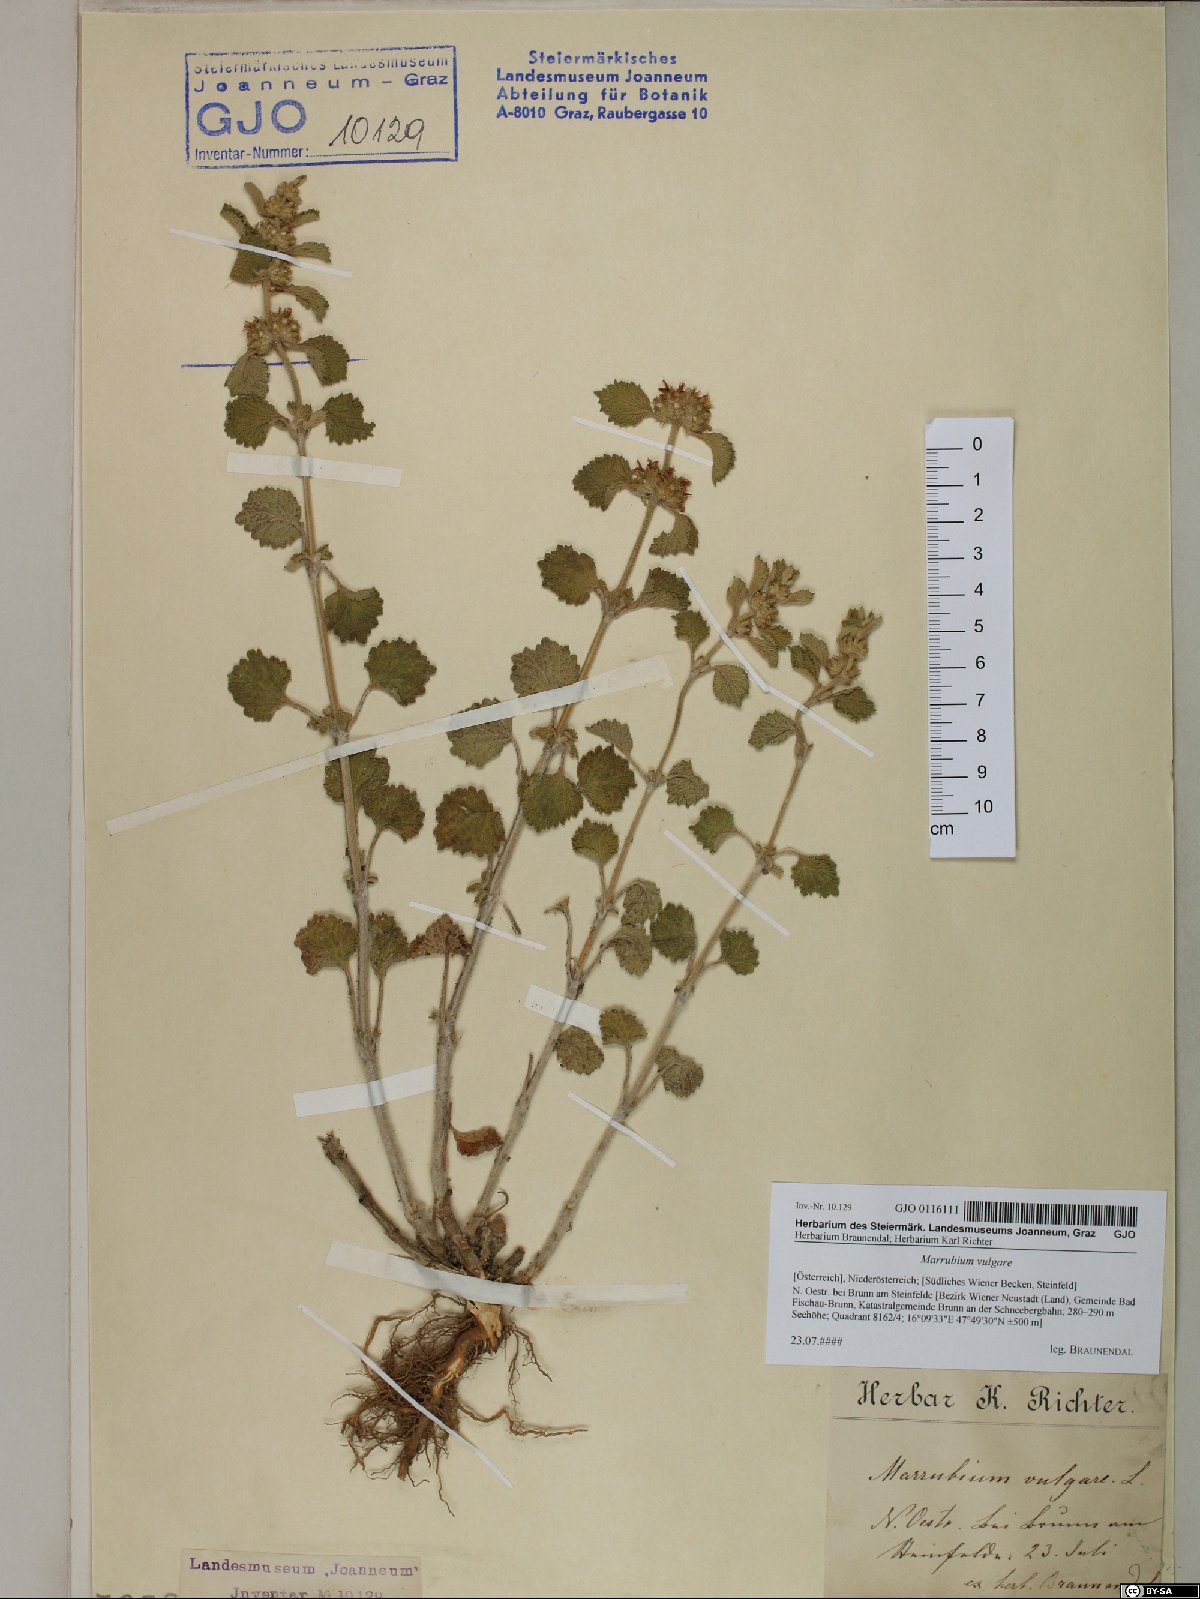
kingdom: Plantae
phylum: Tracheophyta
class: Magnoliopsida
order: Lamiales
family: Lamiaceae
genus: Marrubium
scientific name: Marrubium vulgare
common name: Horehound
